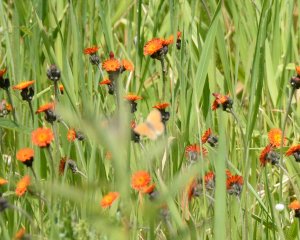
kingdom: Animalia
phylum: Arthropoda
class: Insecta
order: Lepidoptera
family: Nymphalidae
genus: Coenonympha
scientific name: Coenonympha tullia
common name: Large Heath
